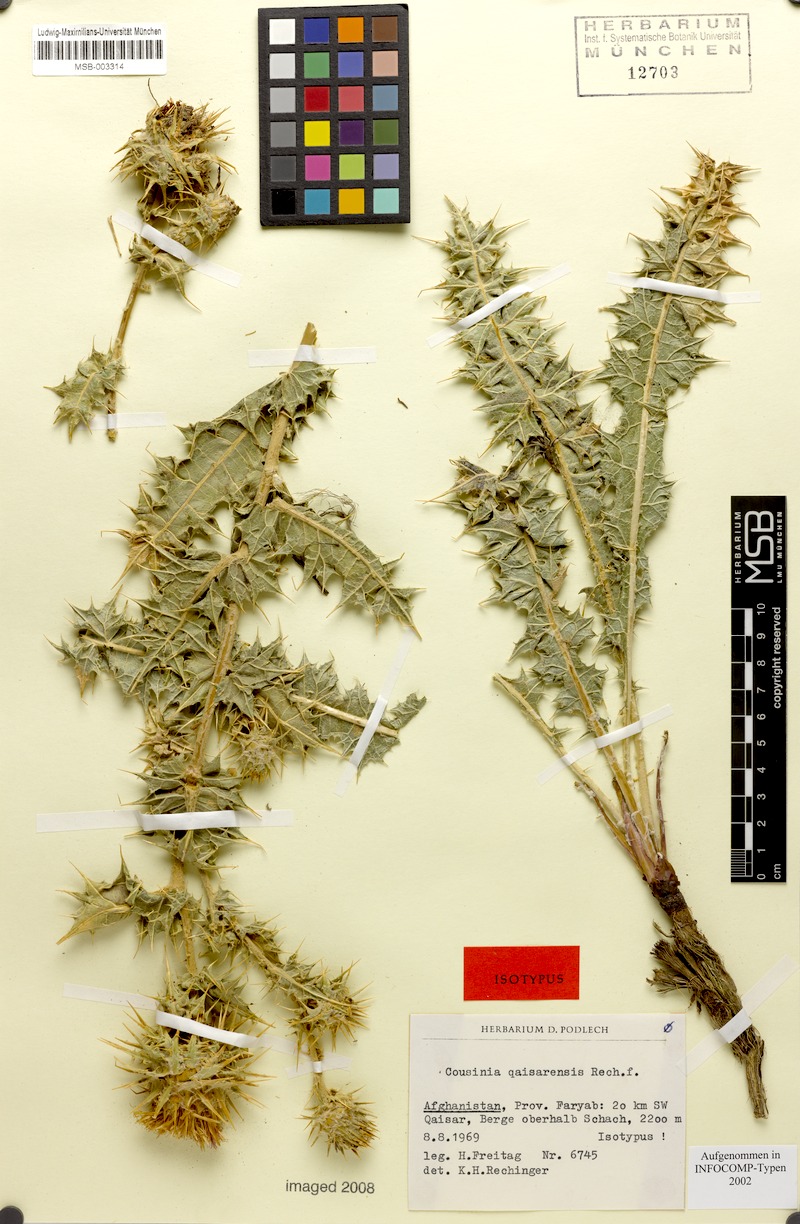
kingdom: Plantae
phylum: Tracheophyta
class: Magnoliopsida
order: Asterales
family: Asteraceae
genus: Cousinia
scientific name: Cousinia qaisarensis
